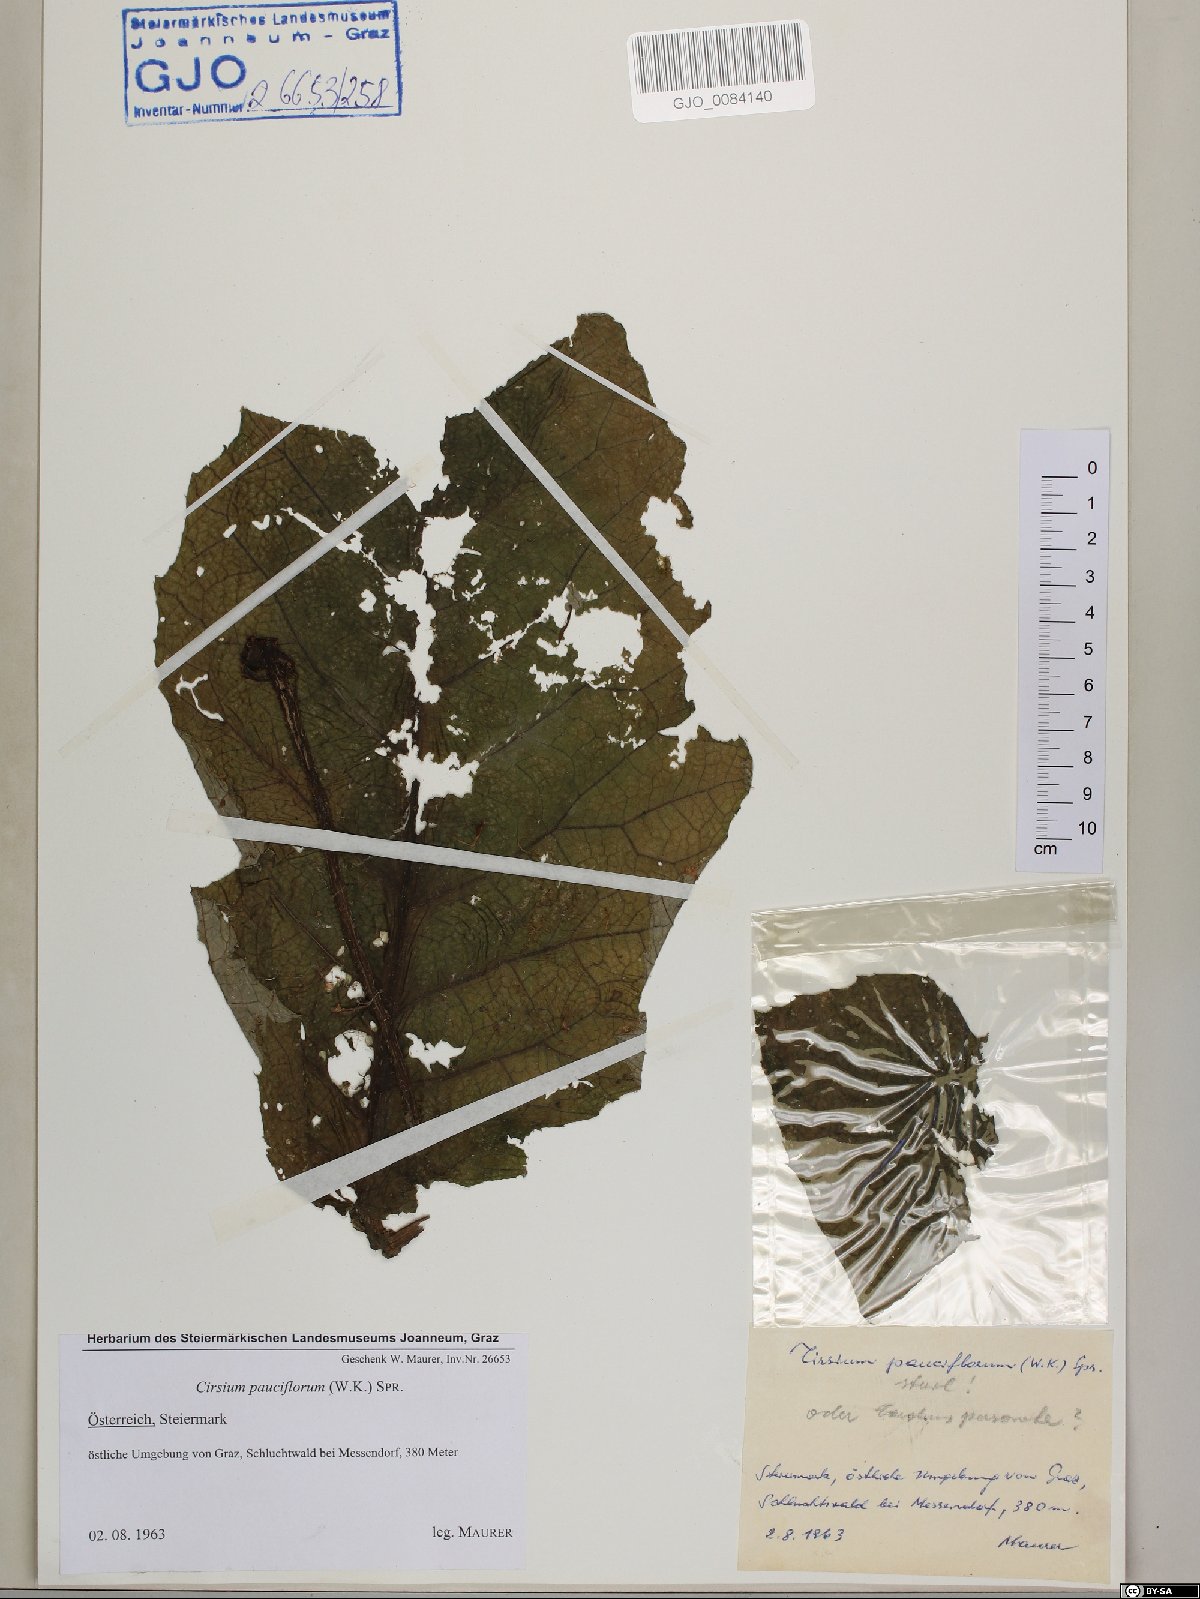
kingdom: Plantae
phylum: Tracheophyta
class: Magnoliopsida
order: Asterales
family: Asteraceae
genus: Cirsium
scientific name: Cirsium greimleri
